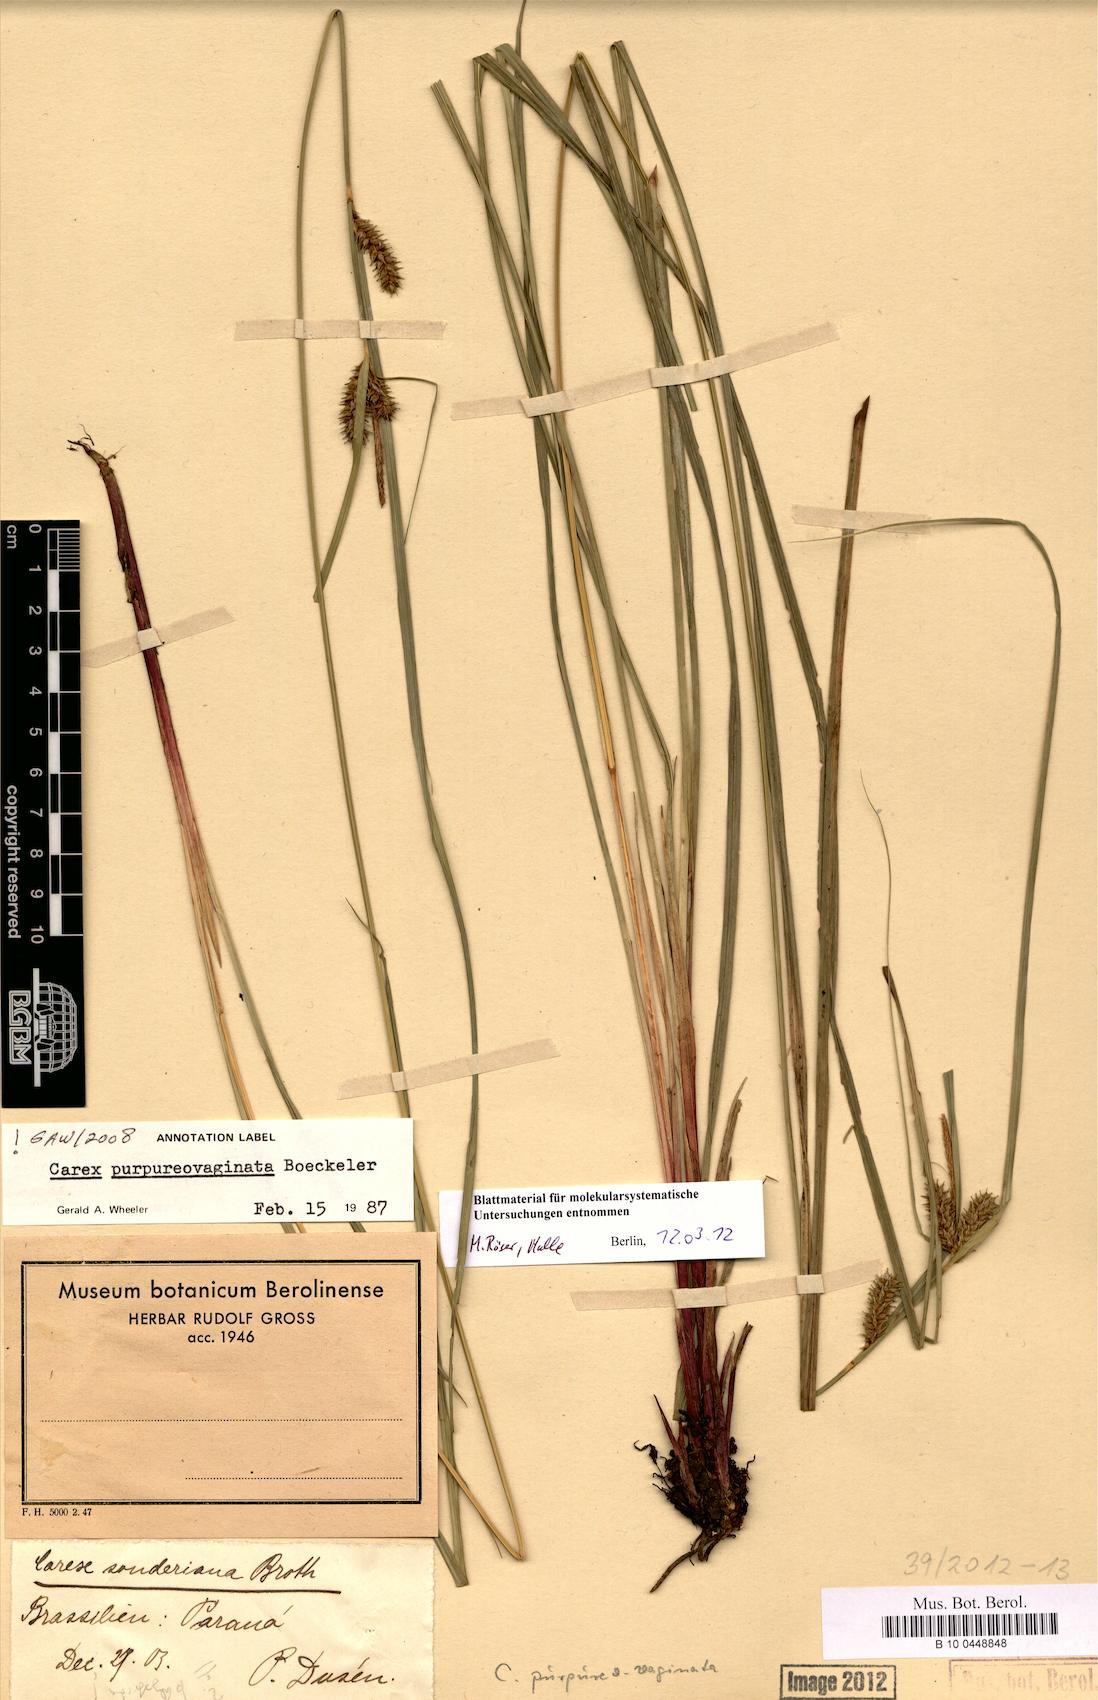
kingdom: Plantae
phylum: Tracheophyta
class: Liliopsida
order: Poales
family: Cyperaceae
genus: Carex
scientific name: Carex purpureovaginata
